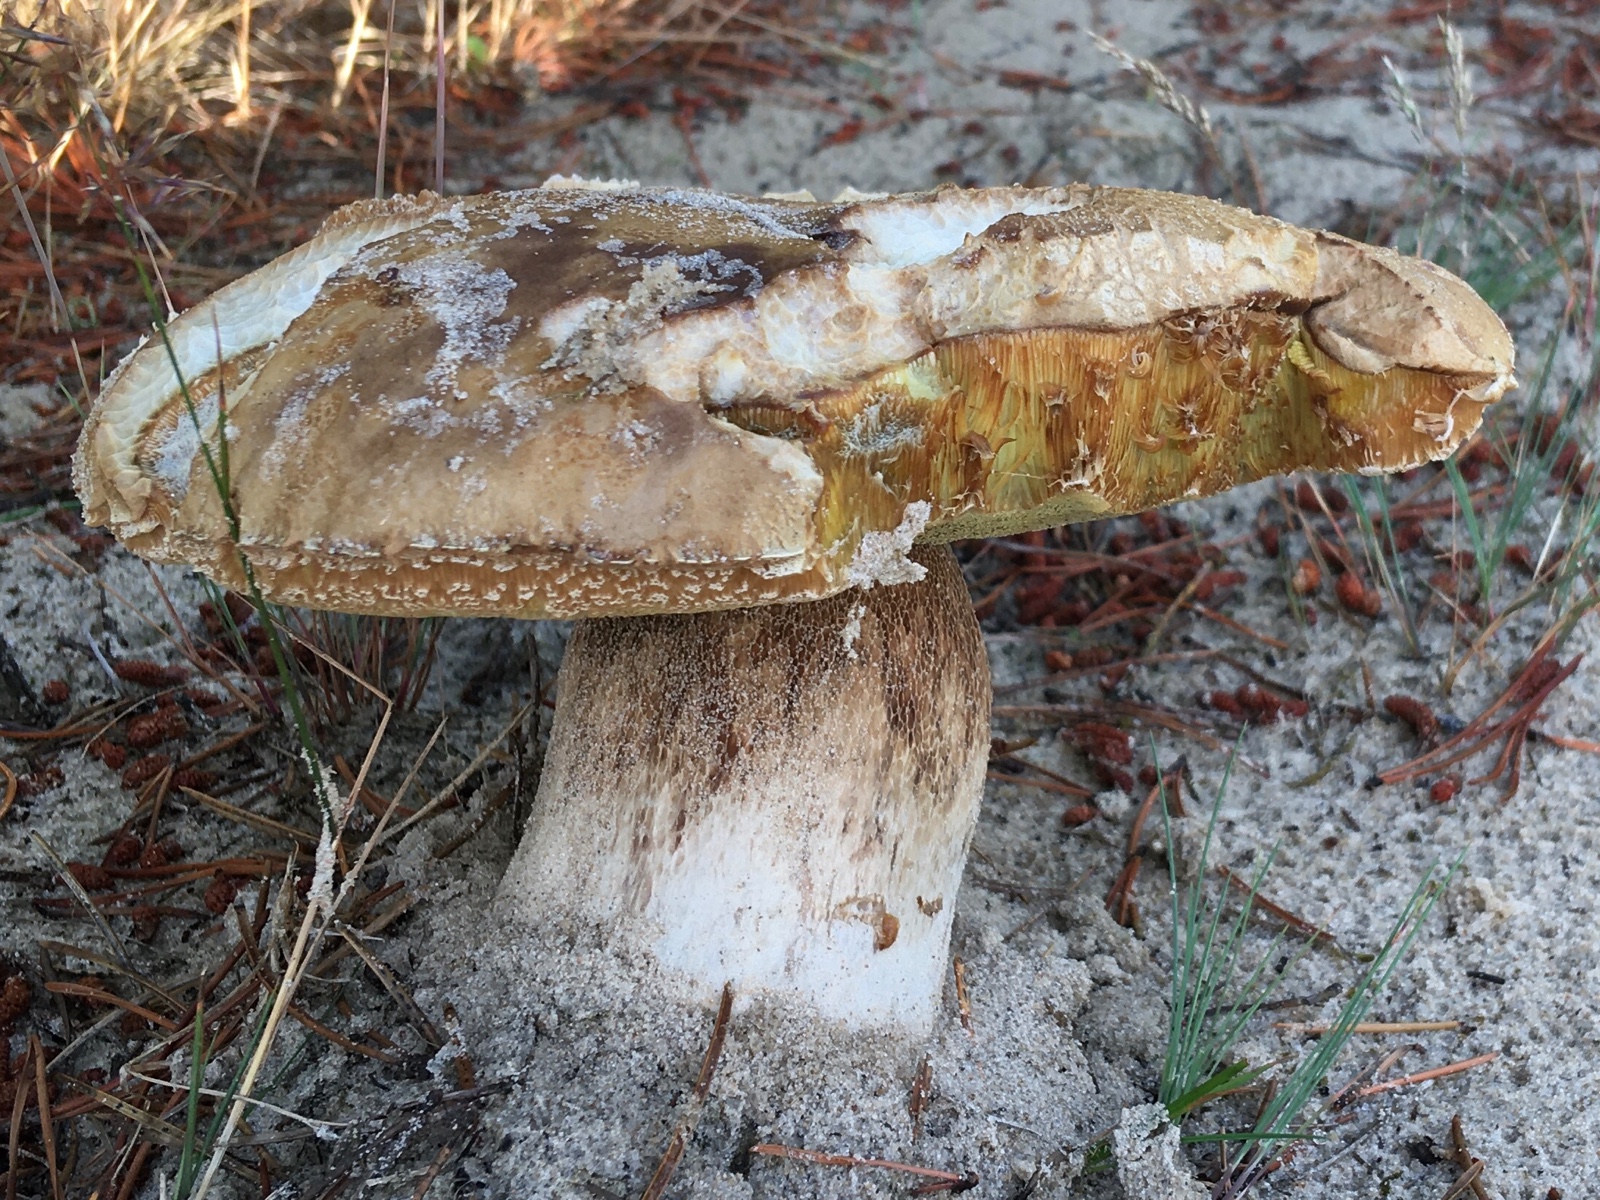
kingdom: Fungi
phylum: Basidiomycota
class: Agaricomycetes
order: Boletales
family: Boletaceae
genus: Boletus
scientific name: Boletus edulis
